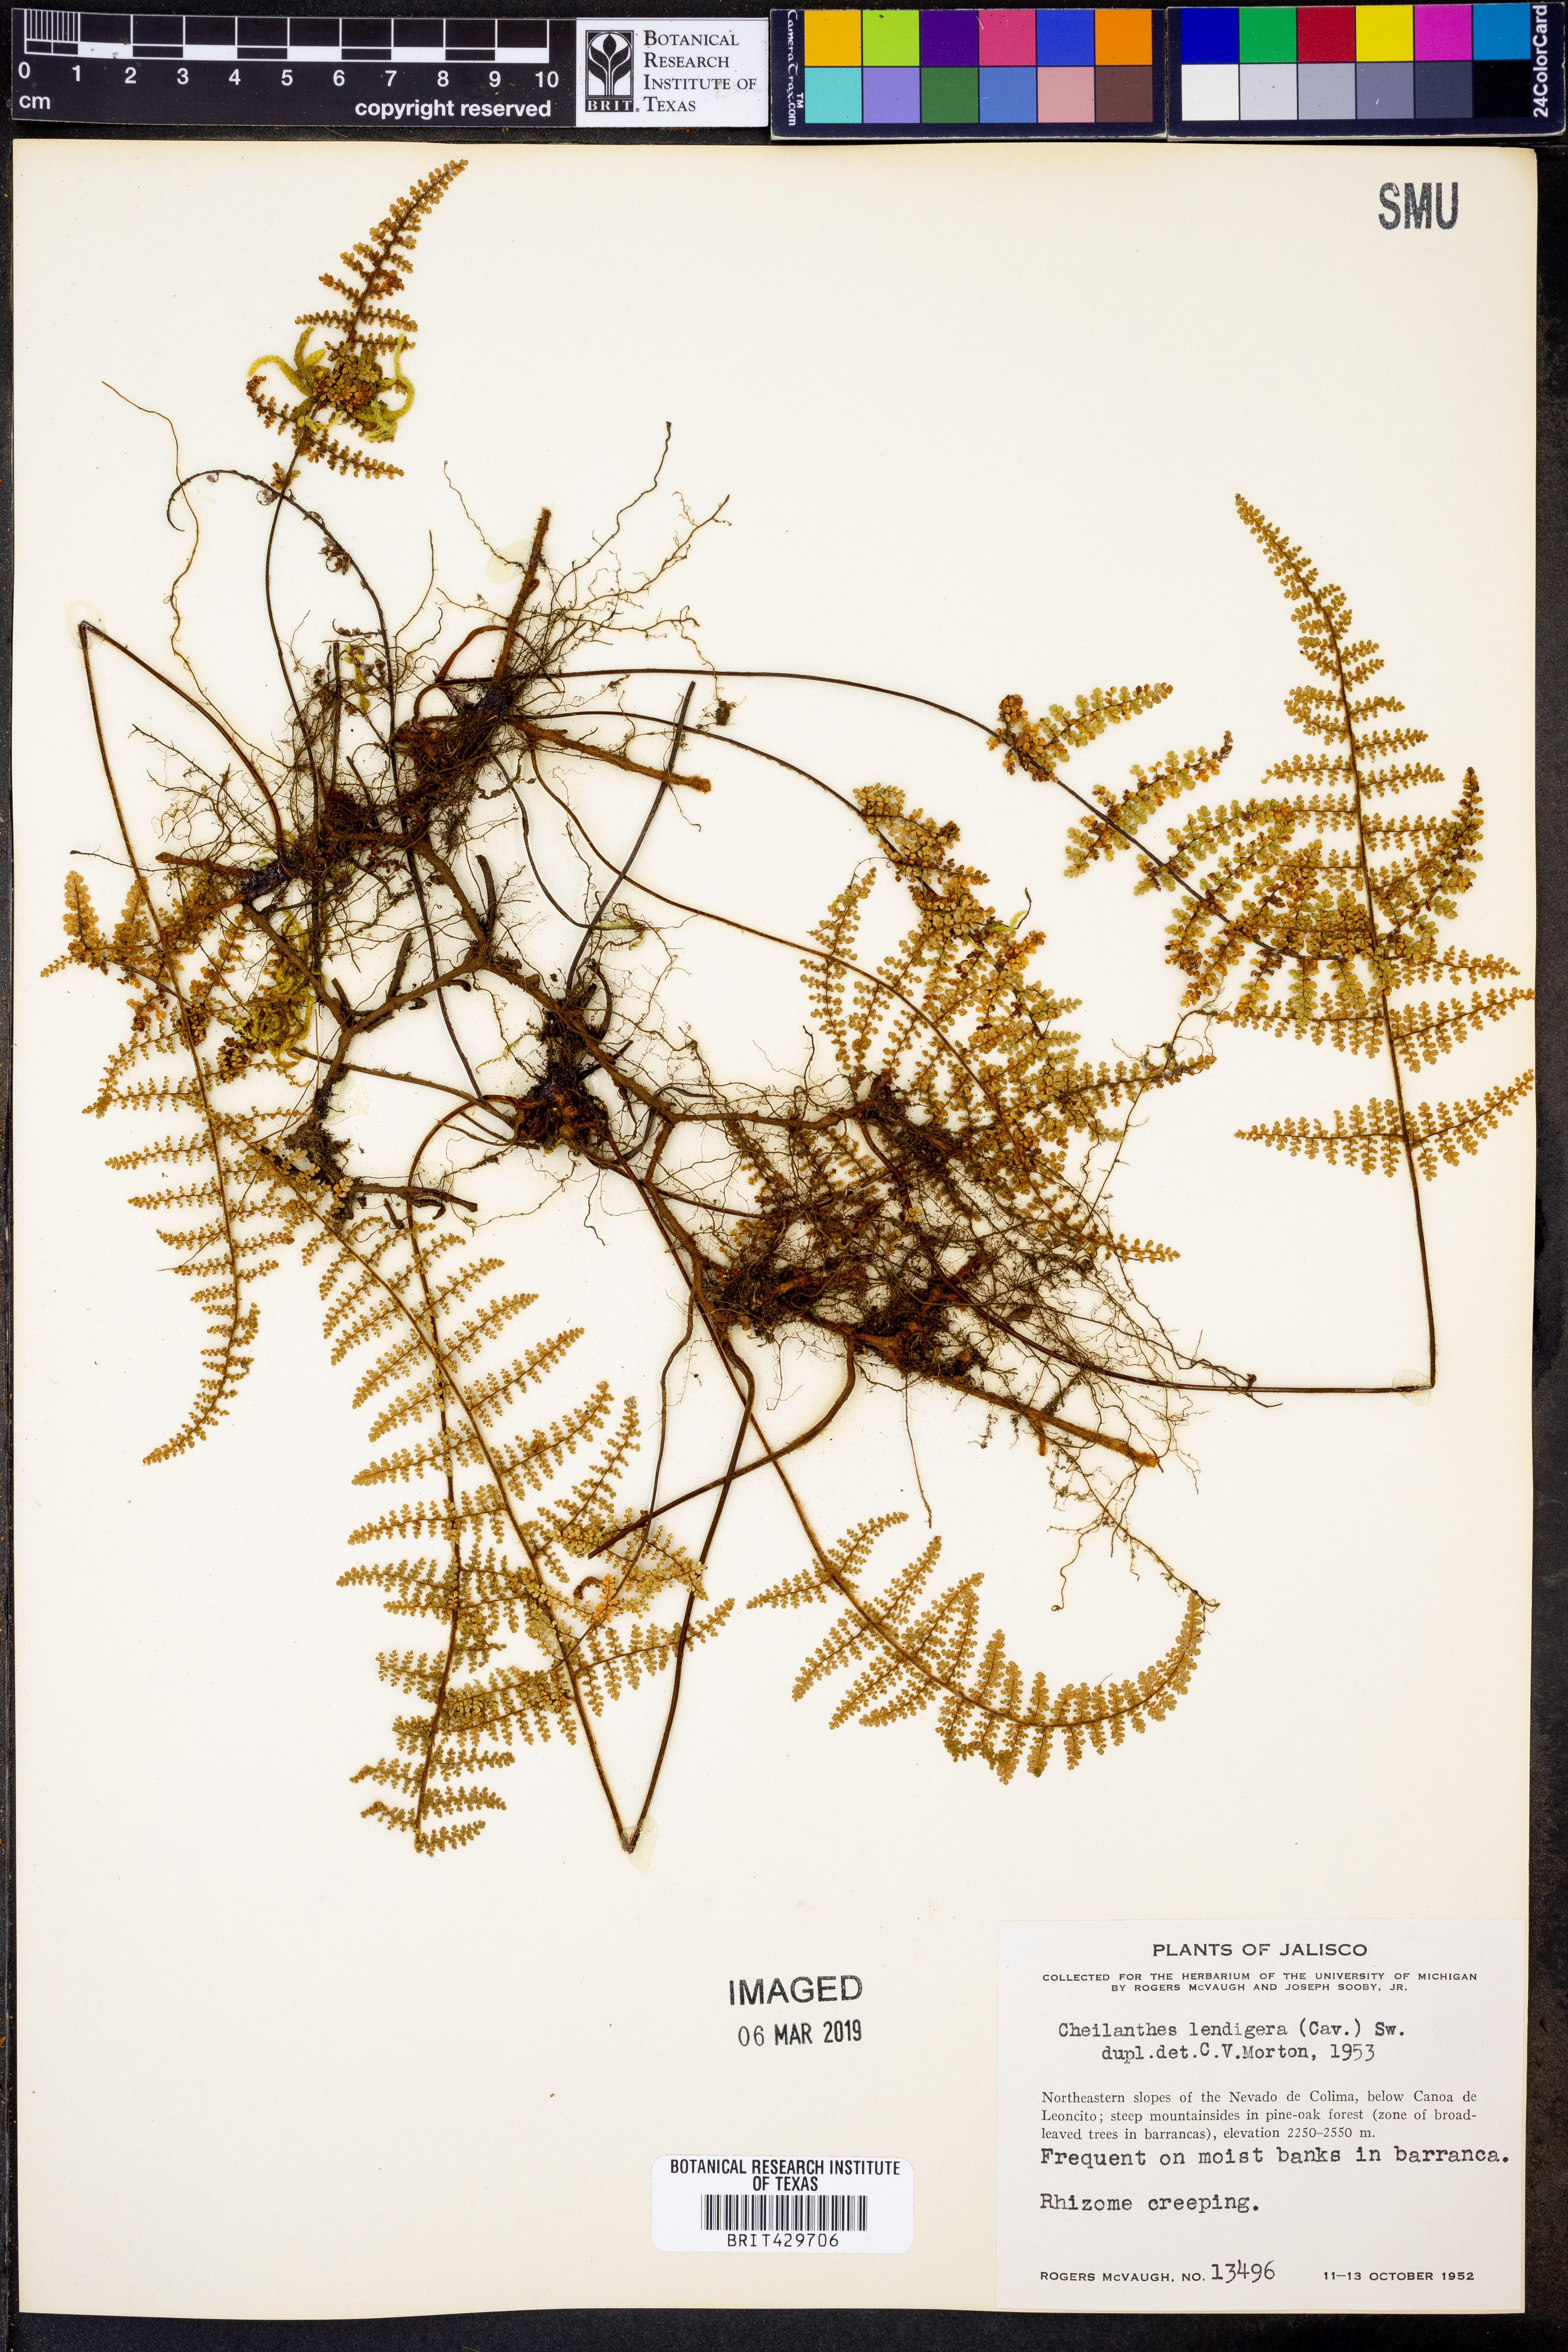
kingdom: Plantae
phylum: Tracheophyta
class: Polypodiopsida
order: Polypodiales
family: Pteridaceae
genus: Myriopteris
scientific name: Myriopteris lendigera
